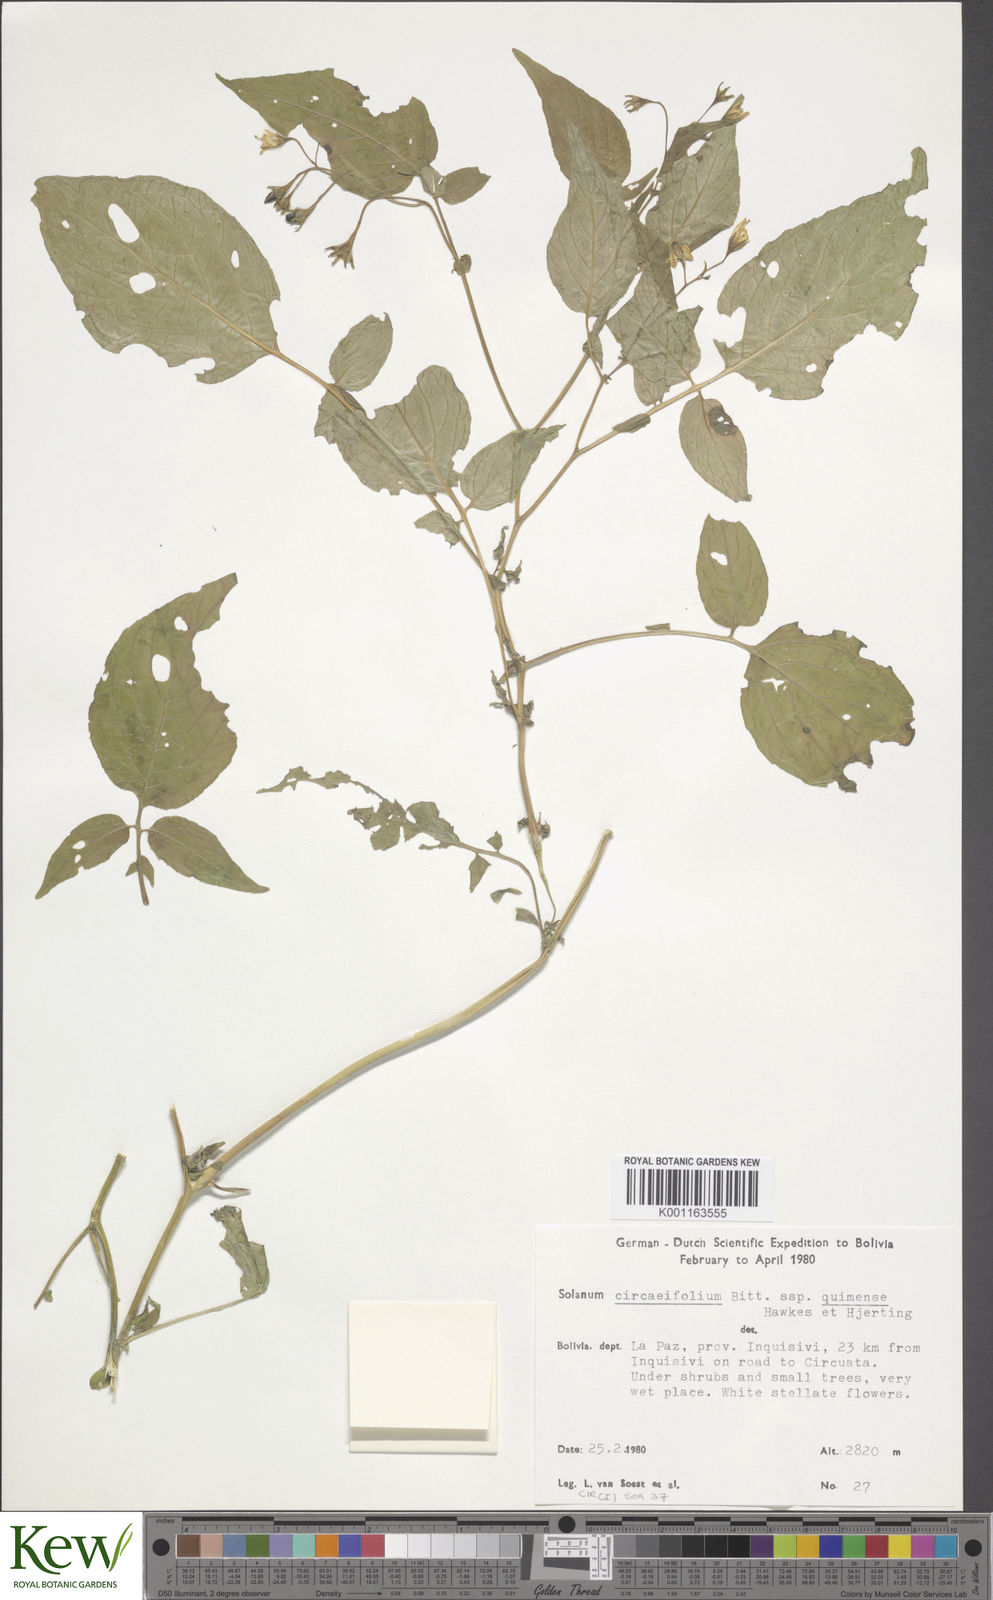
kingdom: Plantae
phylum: Tracheophyta
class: Magnoliopsida
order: Solanales
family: Solanaceae
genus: Solanum
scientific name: Solanum stipuloideum
